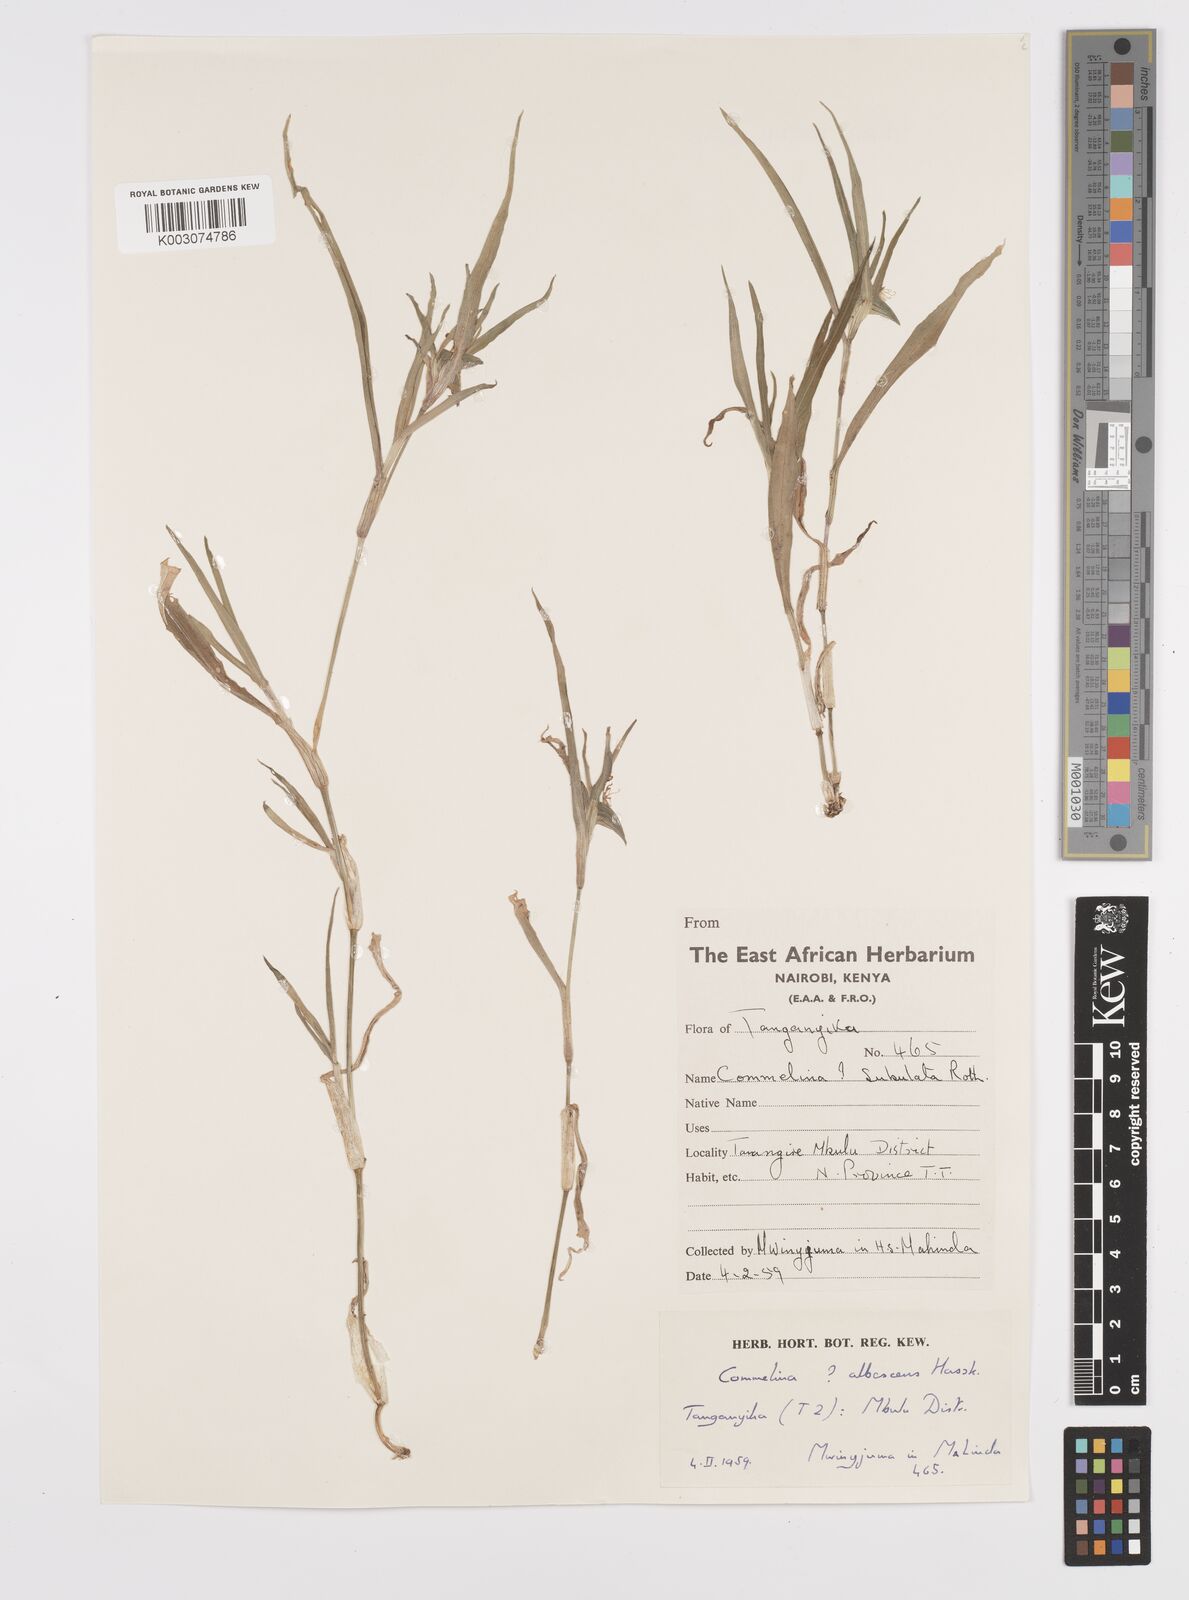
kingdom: Plantae
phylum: Tracheophyta
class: Liliopsida
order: Commelinales
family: Commelinaceae
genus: Commelina
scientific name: Commelina albescens
